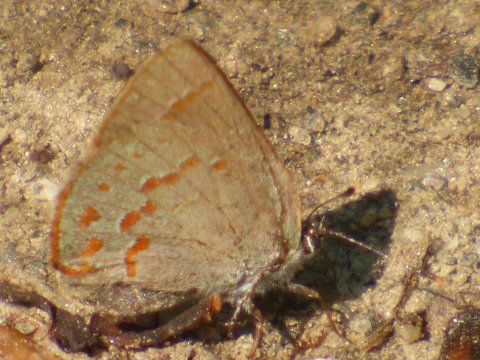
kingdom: Animalia
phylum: Arthropoda
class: Insecta
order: Lepidoptera
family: Lycaenidae
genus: Erora
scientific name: Erora laeta
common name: Early Hairstreak
